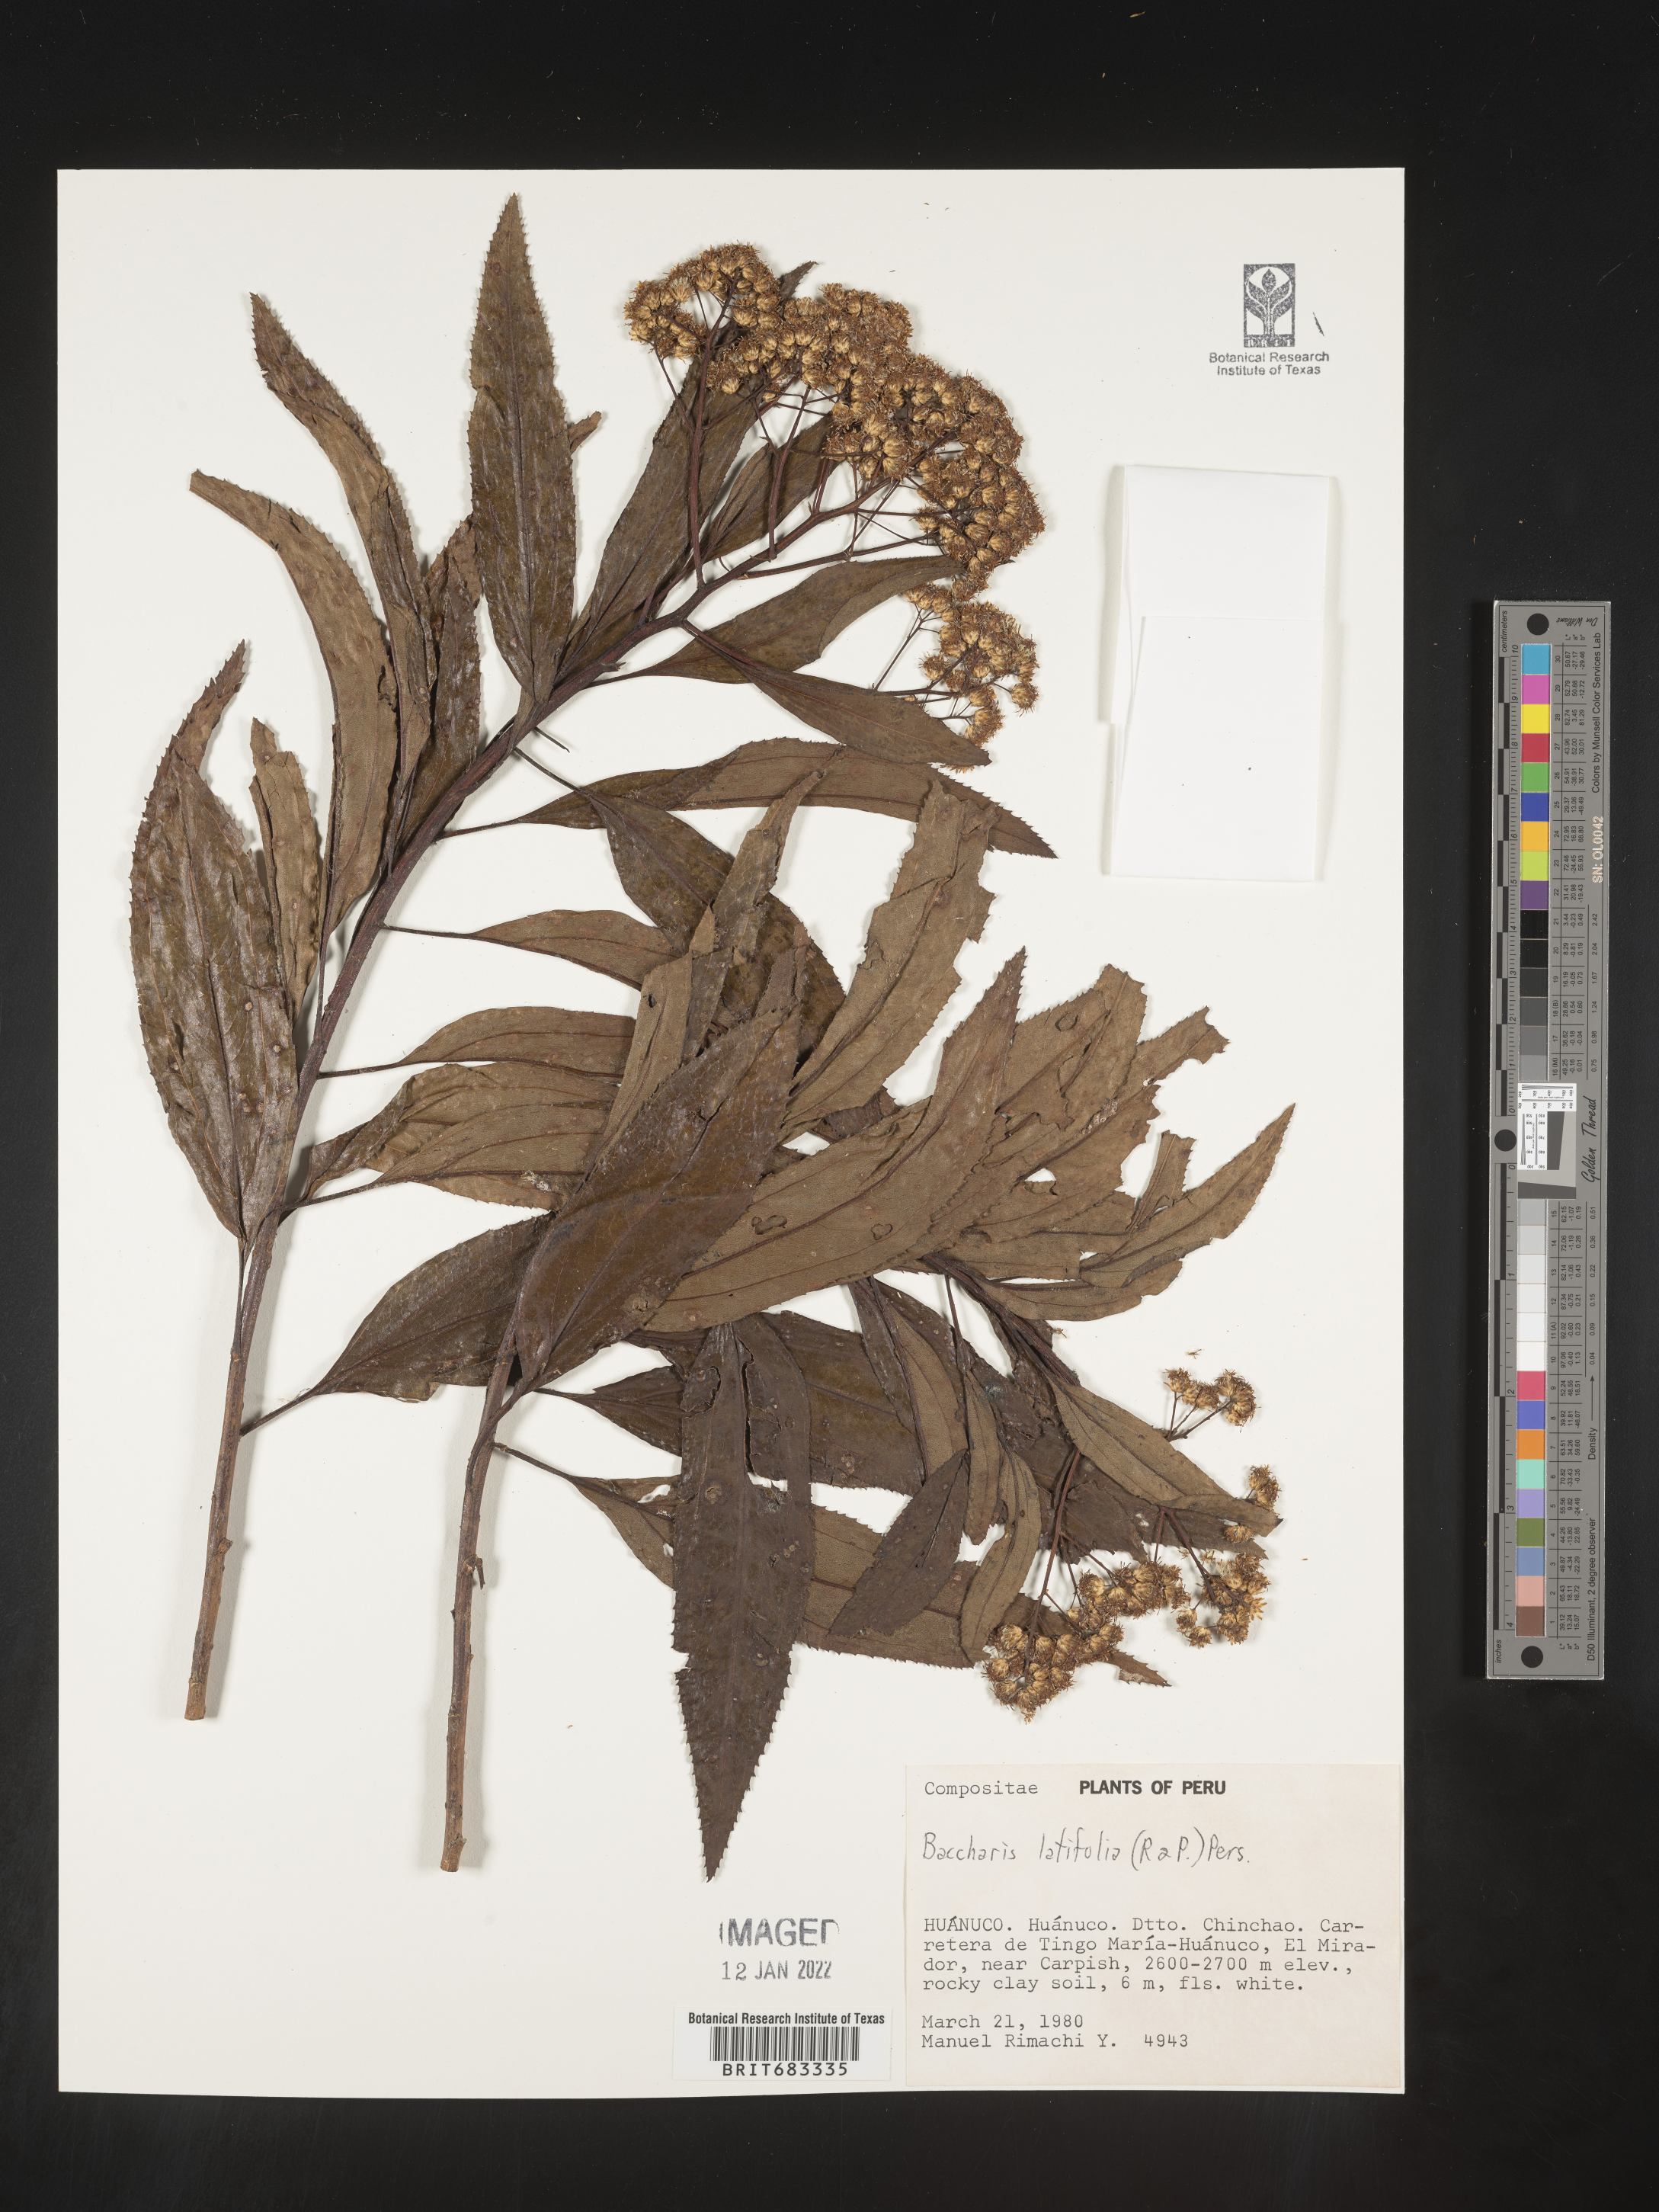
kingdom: Plantae
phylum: Tracheophyta
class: Magnoliopsida
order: Asterales
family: Asteraceae
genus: Baccharis
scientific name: Baccharis
